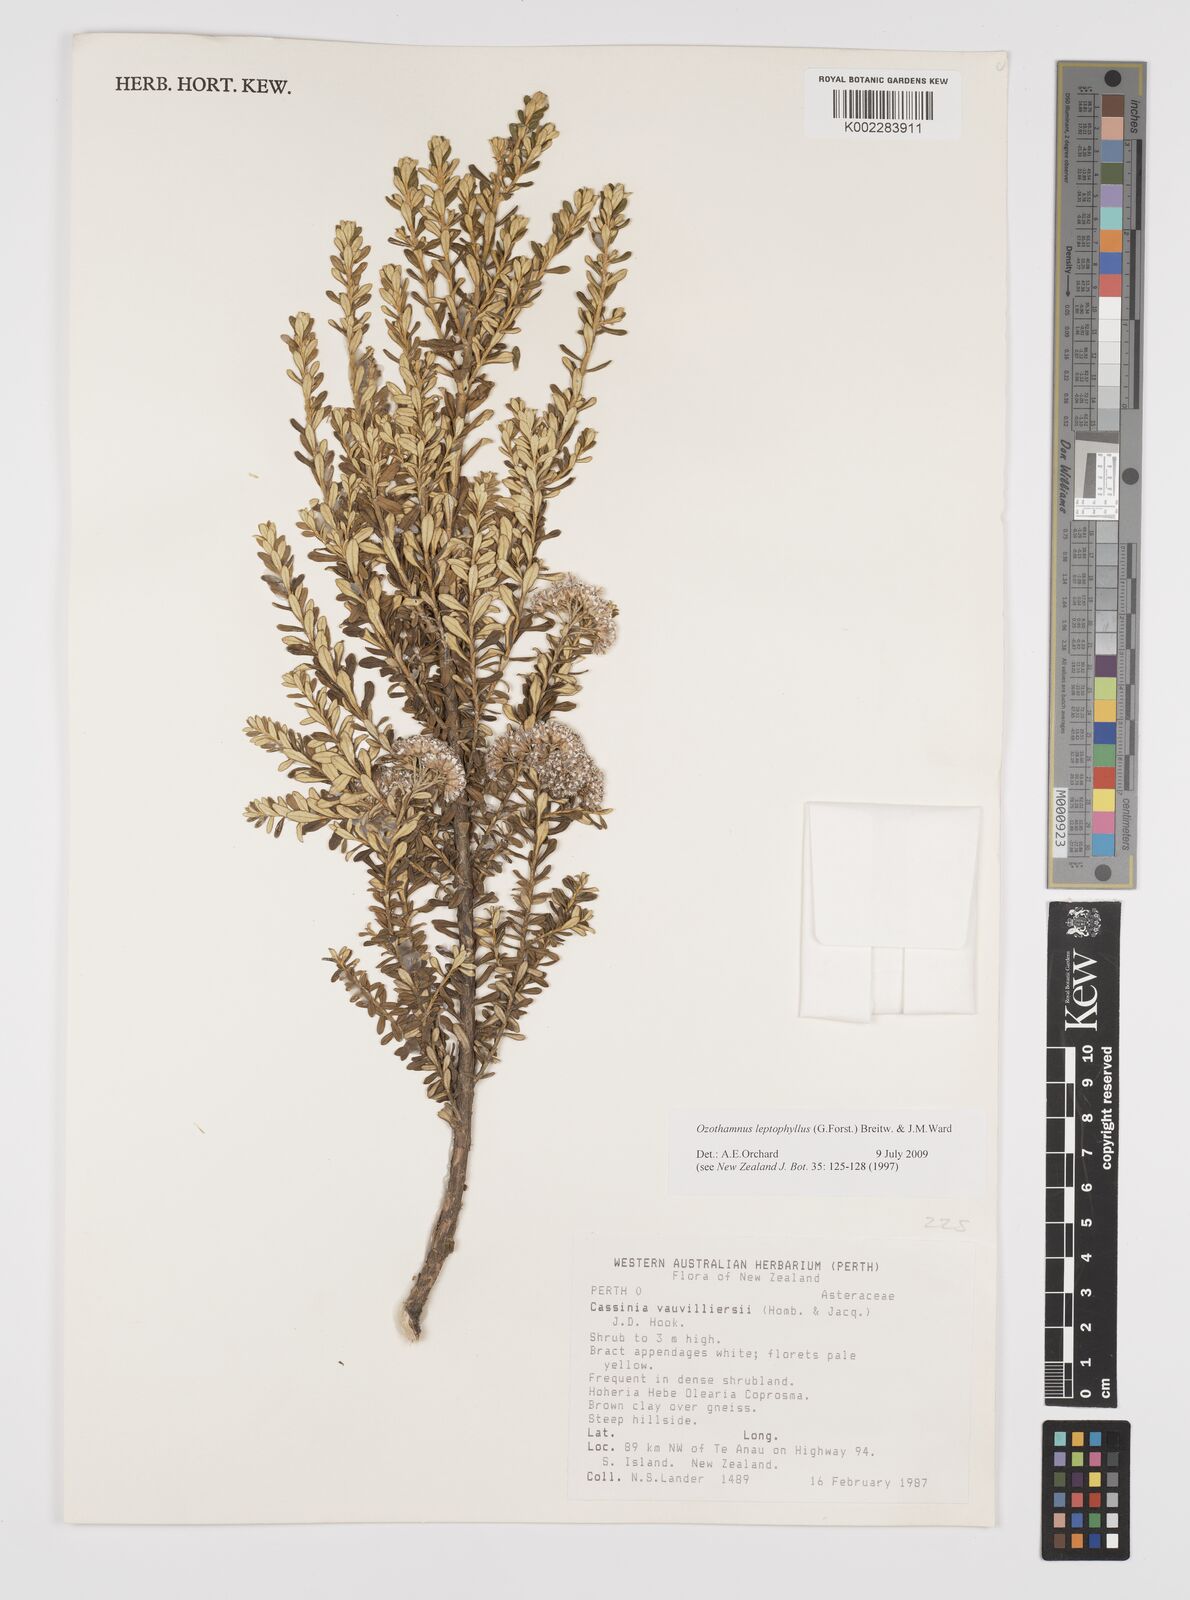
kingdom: Plantae
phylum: Tracheophyta
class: Magnoliopsida
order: Asterales
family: Asteraceae
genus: Ozothamnus
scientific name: Ozothamnus leptophyllus
